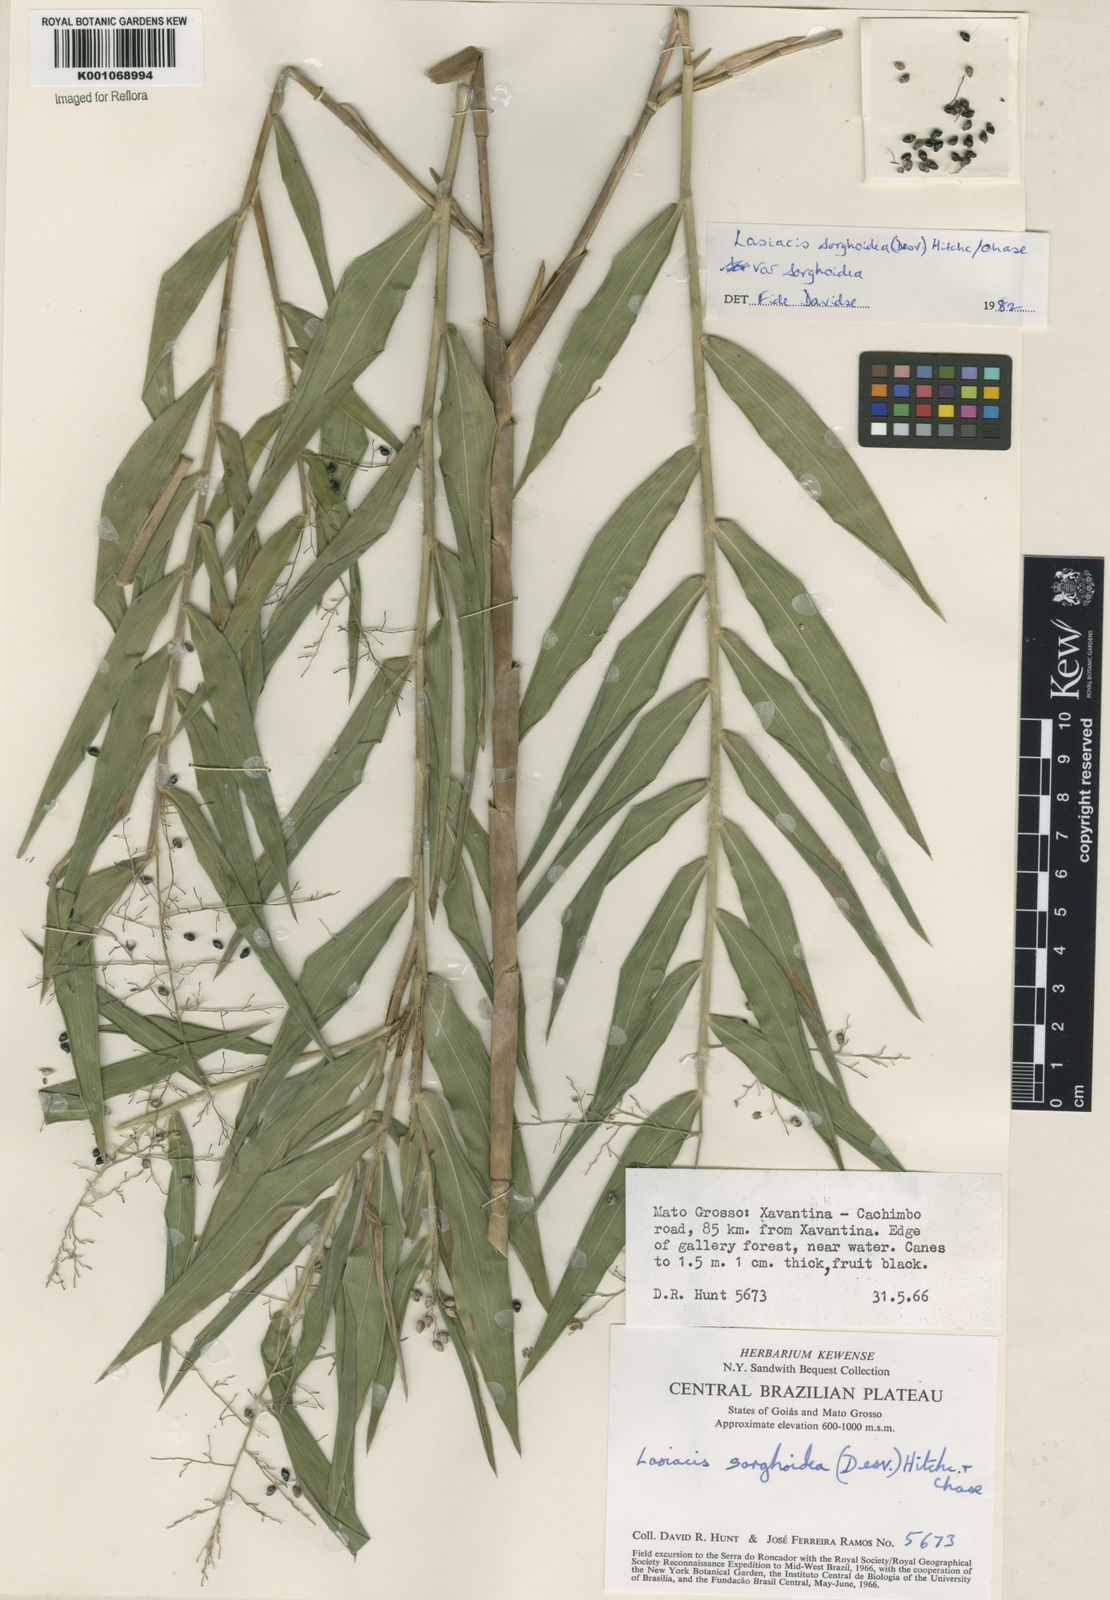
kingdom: Plantae
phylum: Tracheophyta
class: Liliopsida
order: Poales
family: Poaceae
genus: Lasiacis
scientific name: Lasiacis maculata
